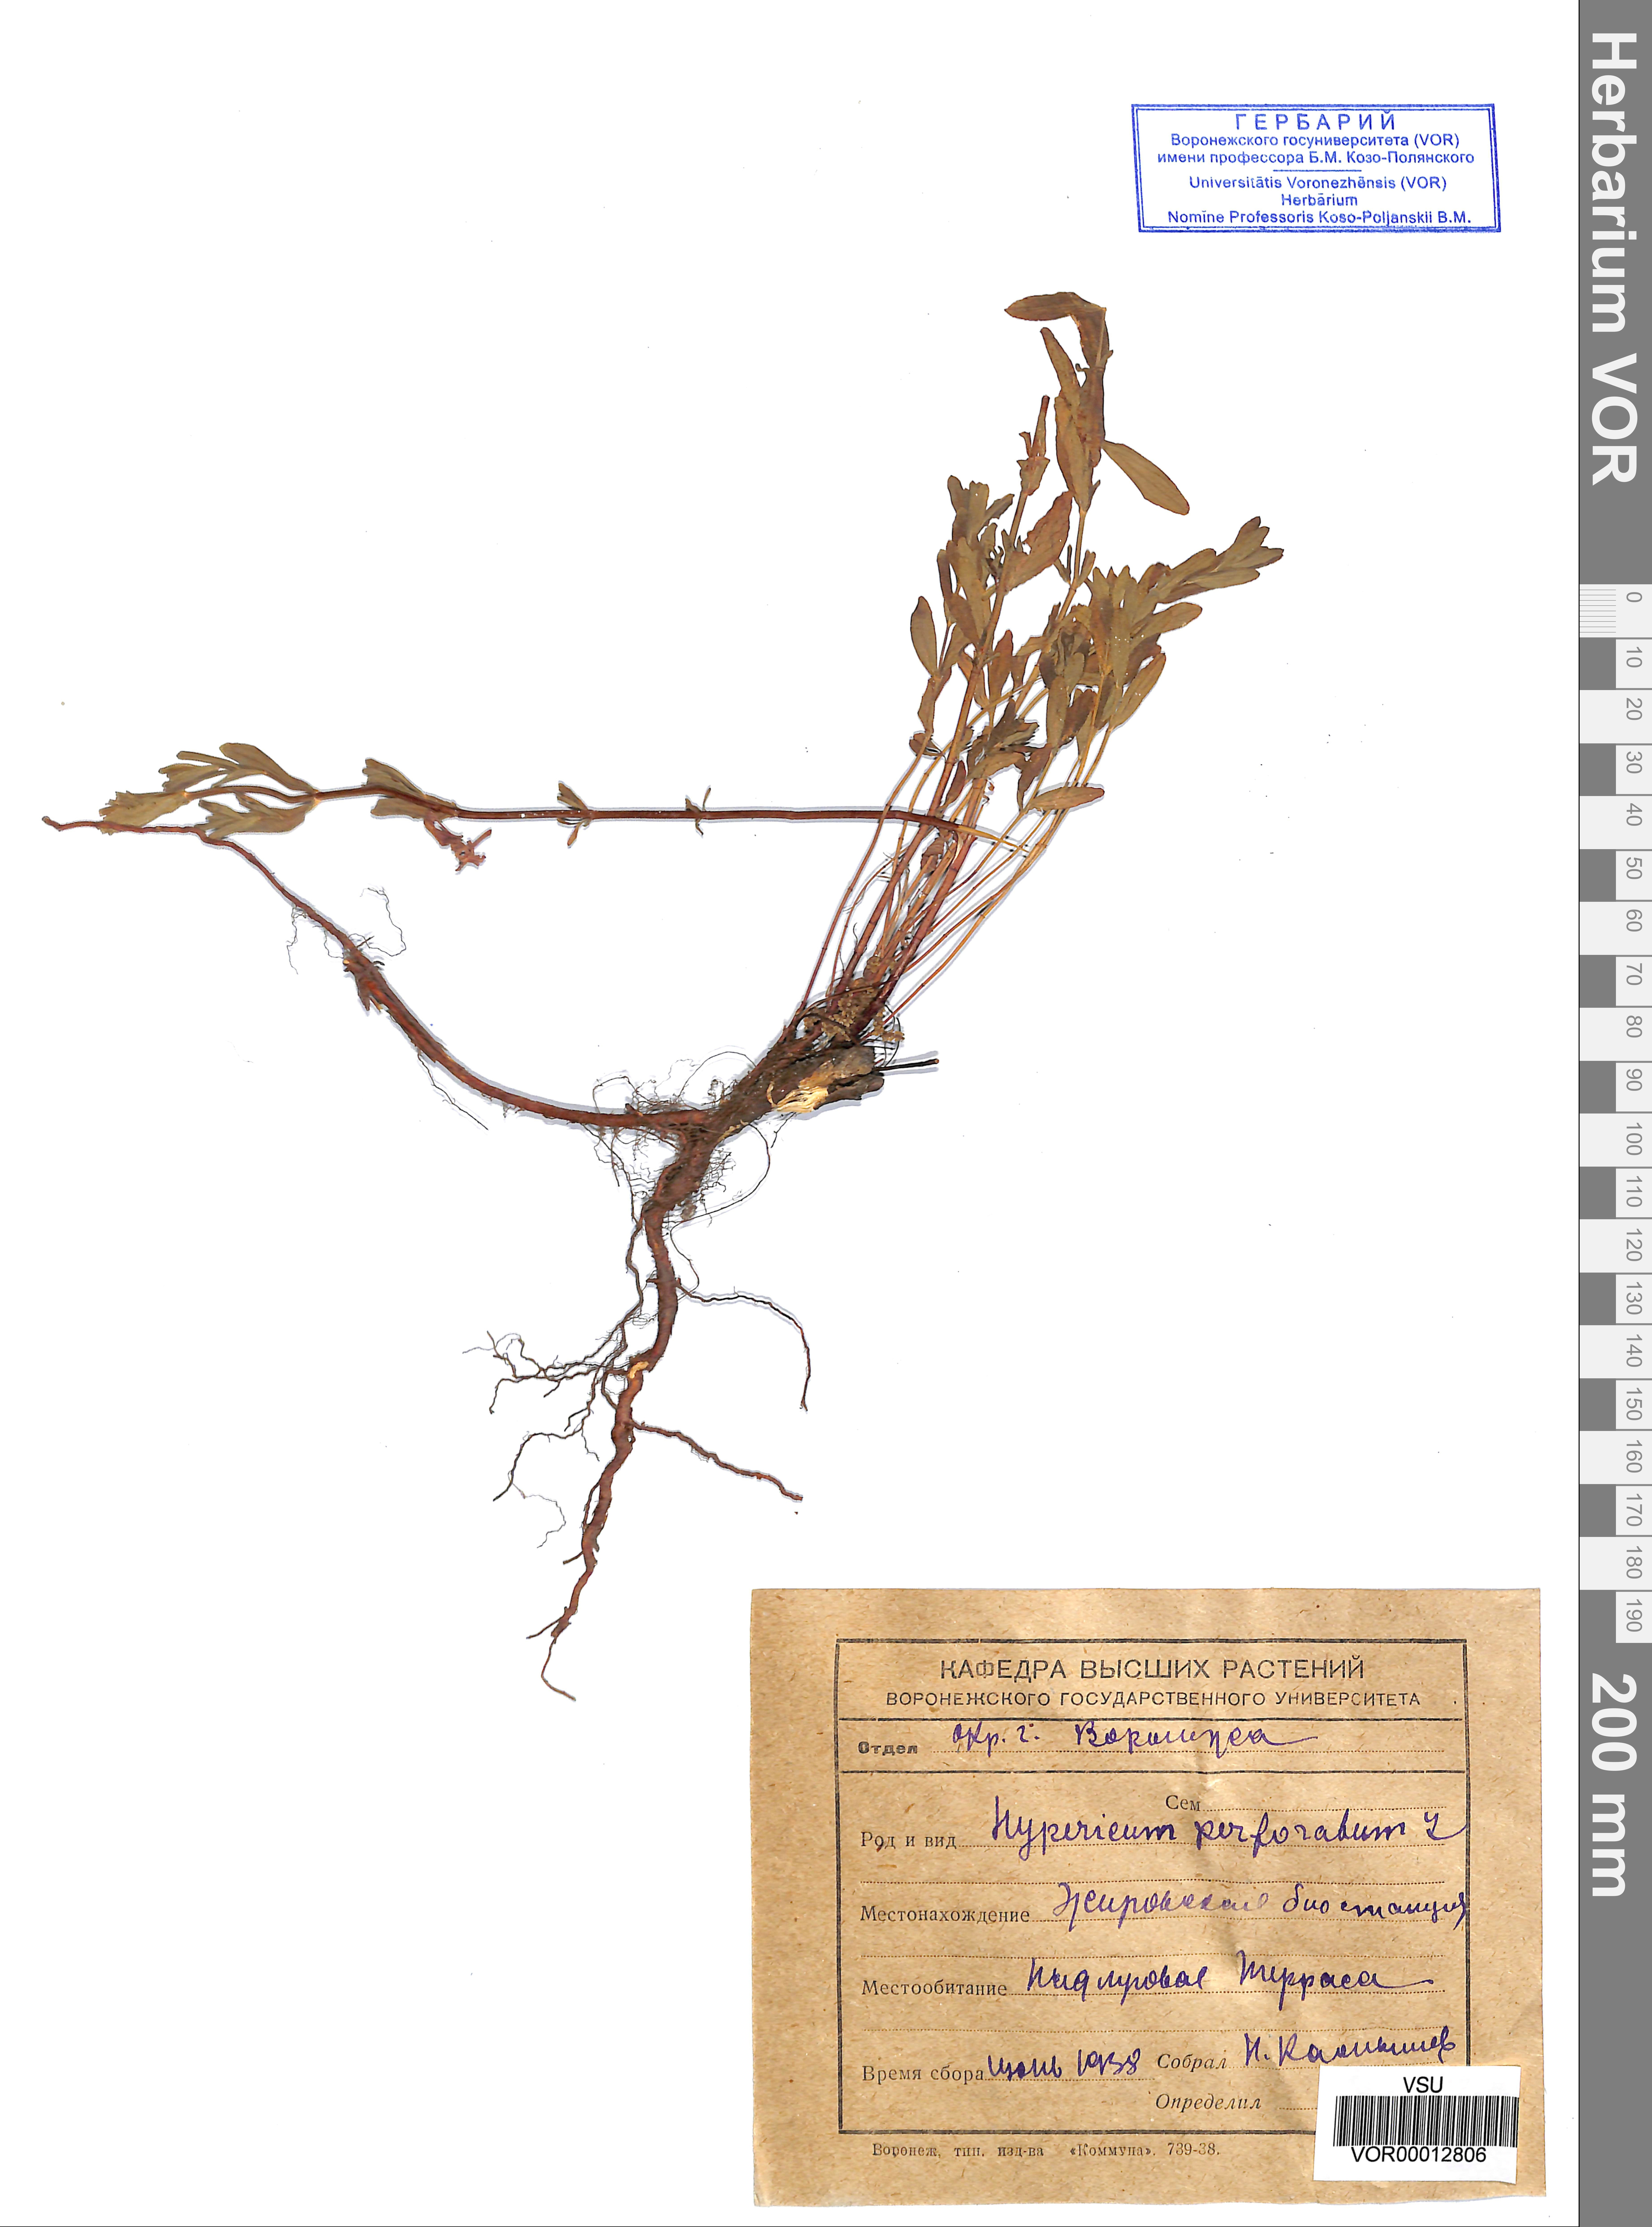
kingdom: Plantae
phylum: Tracheophyta
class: Magnoliopsida
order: Malpighiales
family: Hypericaceae
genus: Hypericum
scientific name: Hypericum perforatum
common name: Common st. johnswort
